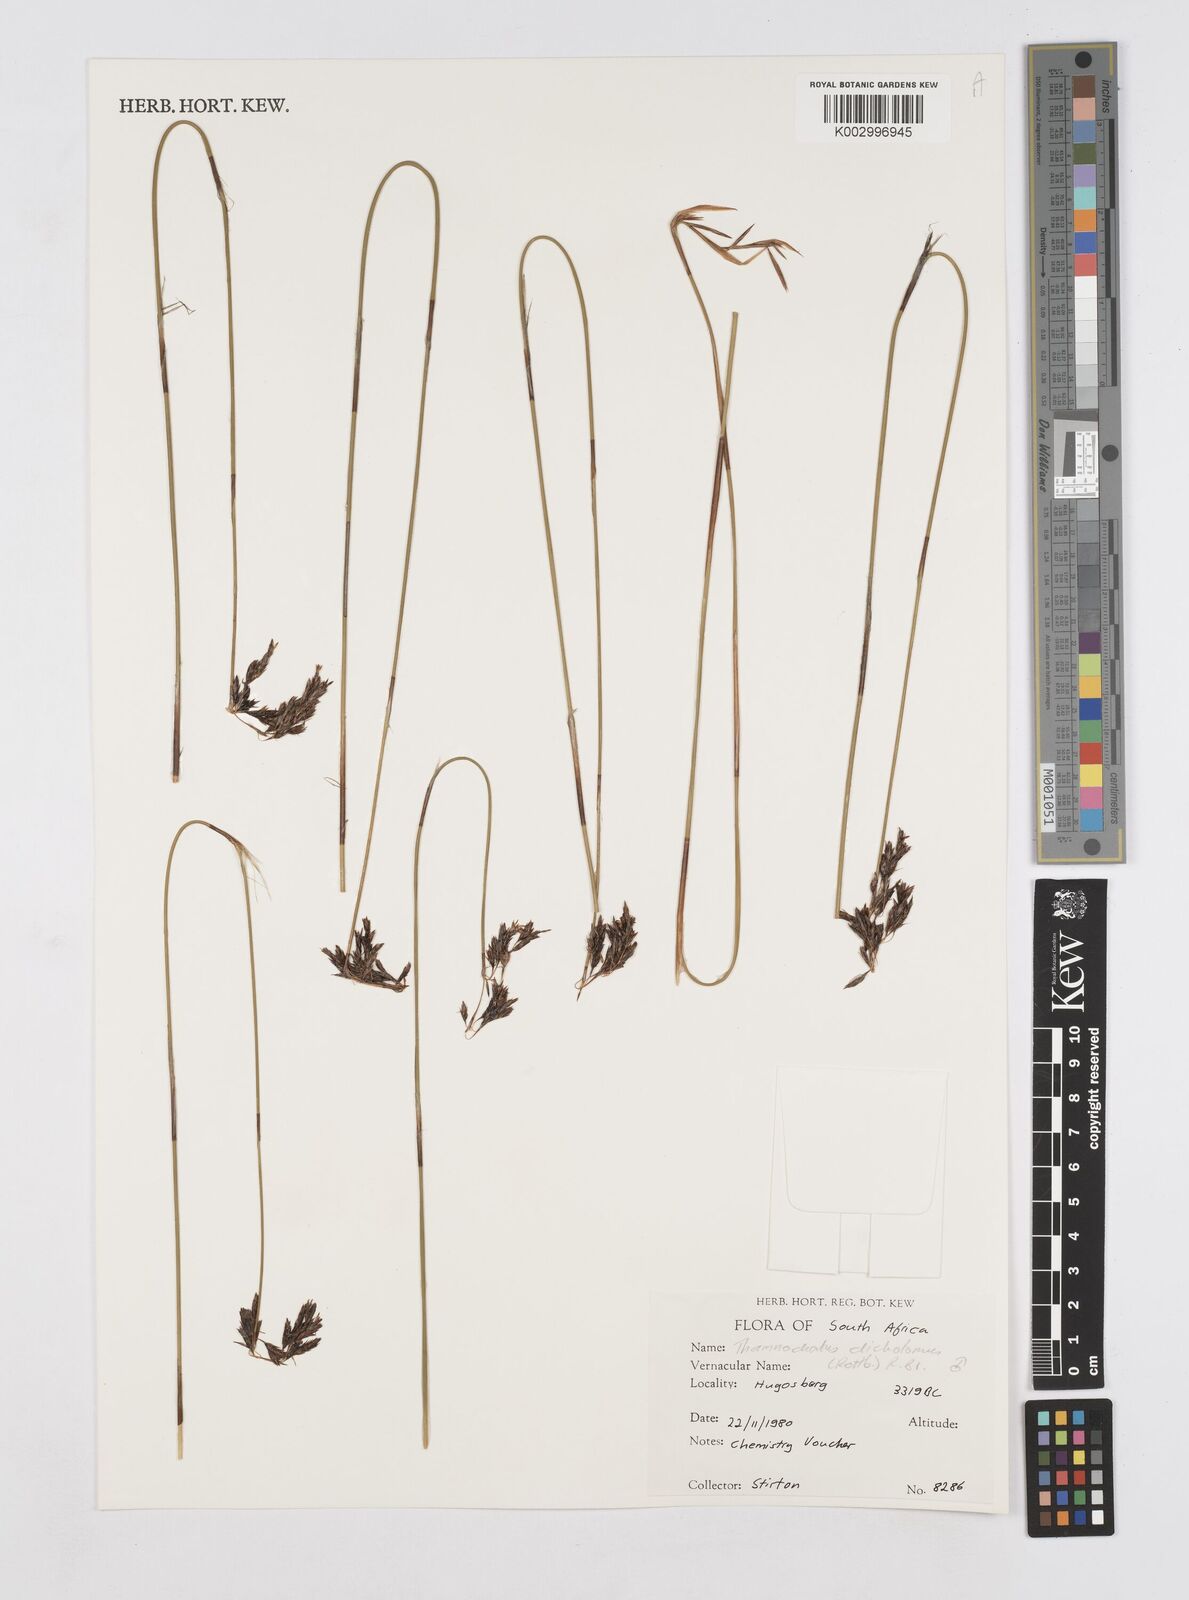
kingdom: Plantae
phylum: Tracheophyta
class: Liliopsida
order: Poales
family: Restionaceae
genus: Thamnochortus
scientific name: Thamnochortus lucens
